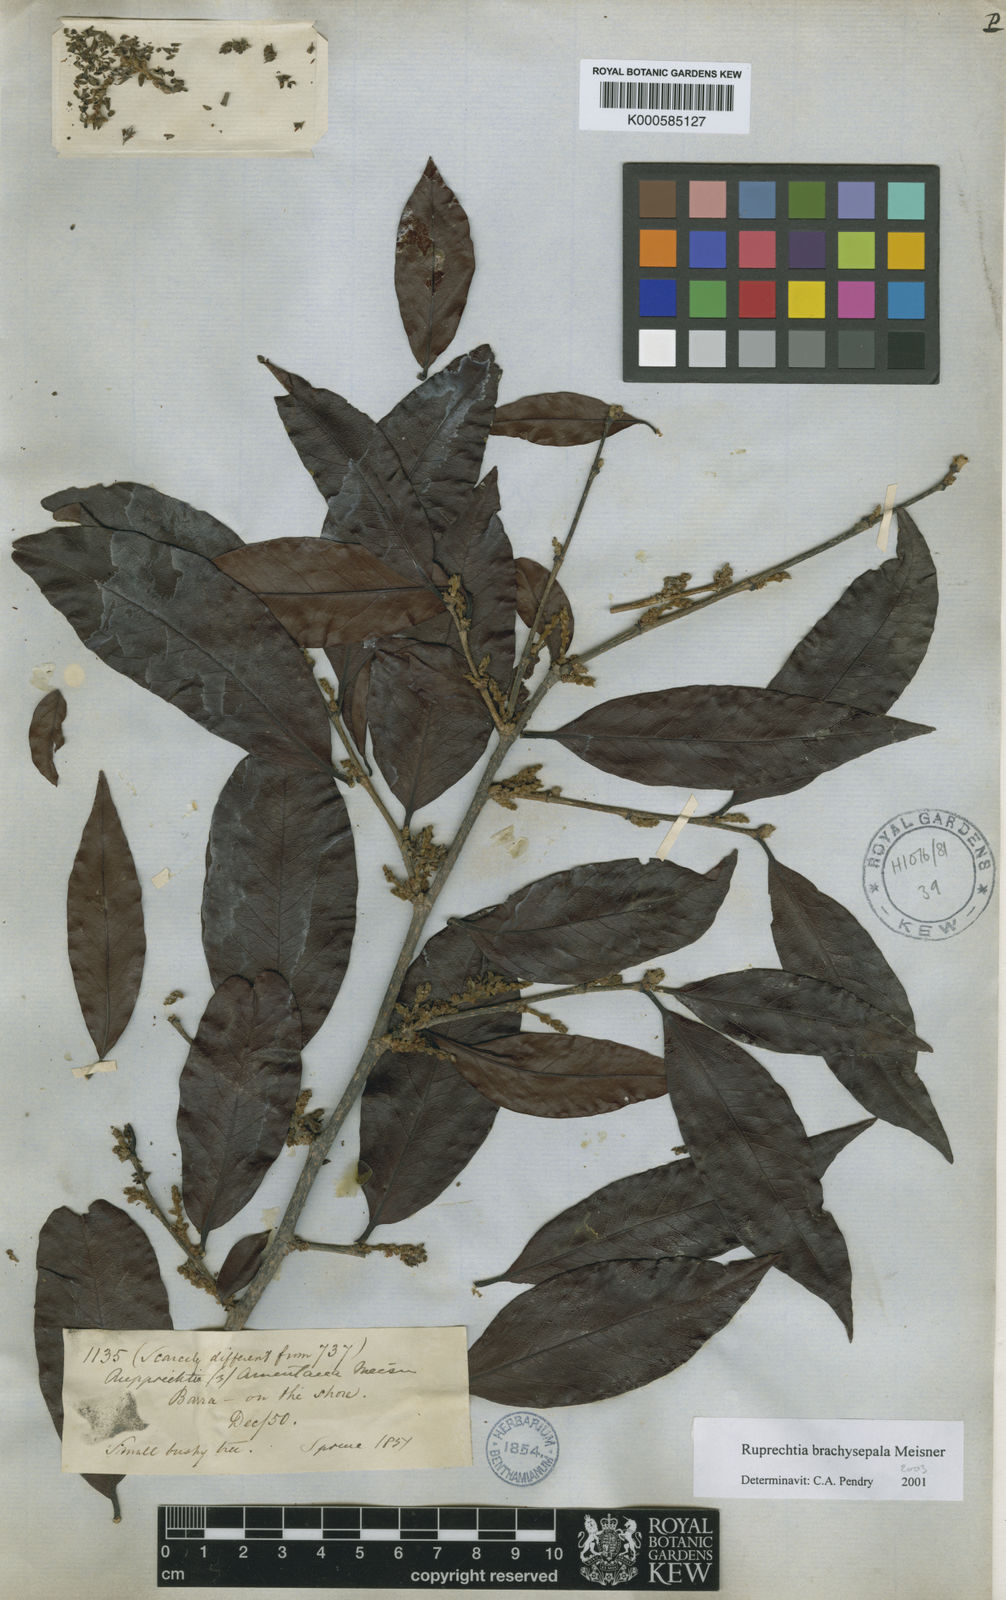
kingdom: Plantae
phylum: Tracheophyta
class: Magnoliopsida
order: Caryophyllales
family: Polygonaceae
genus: Ruprechtia
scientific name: Ruprechtia brachysepala
